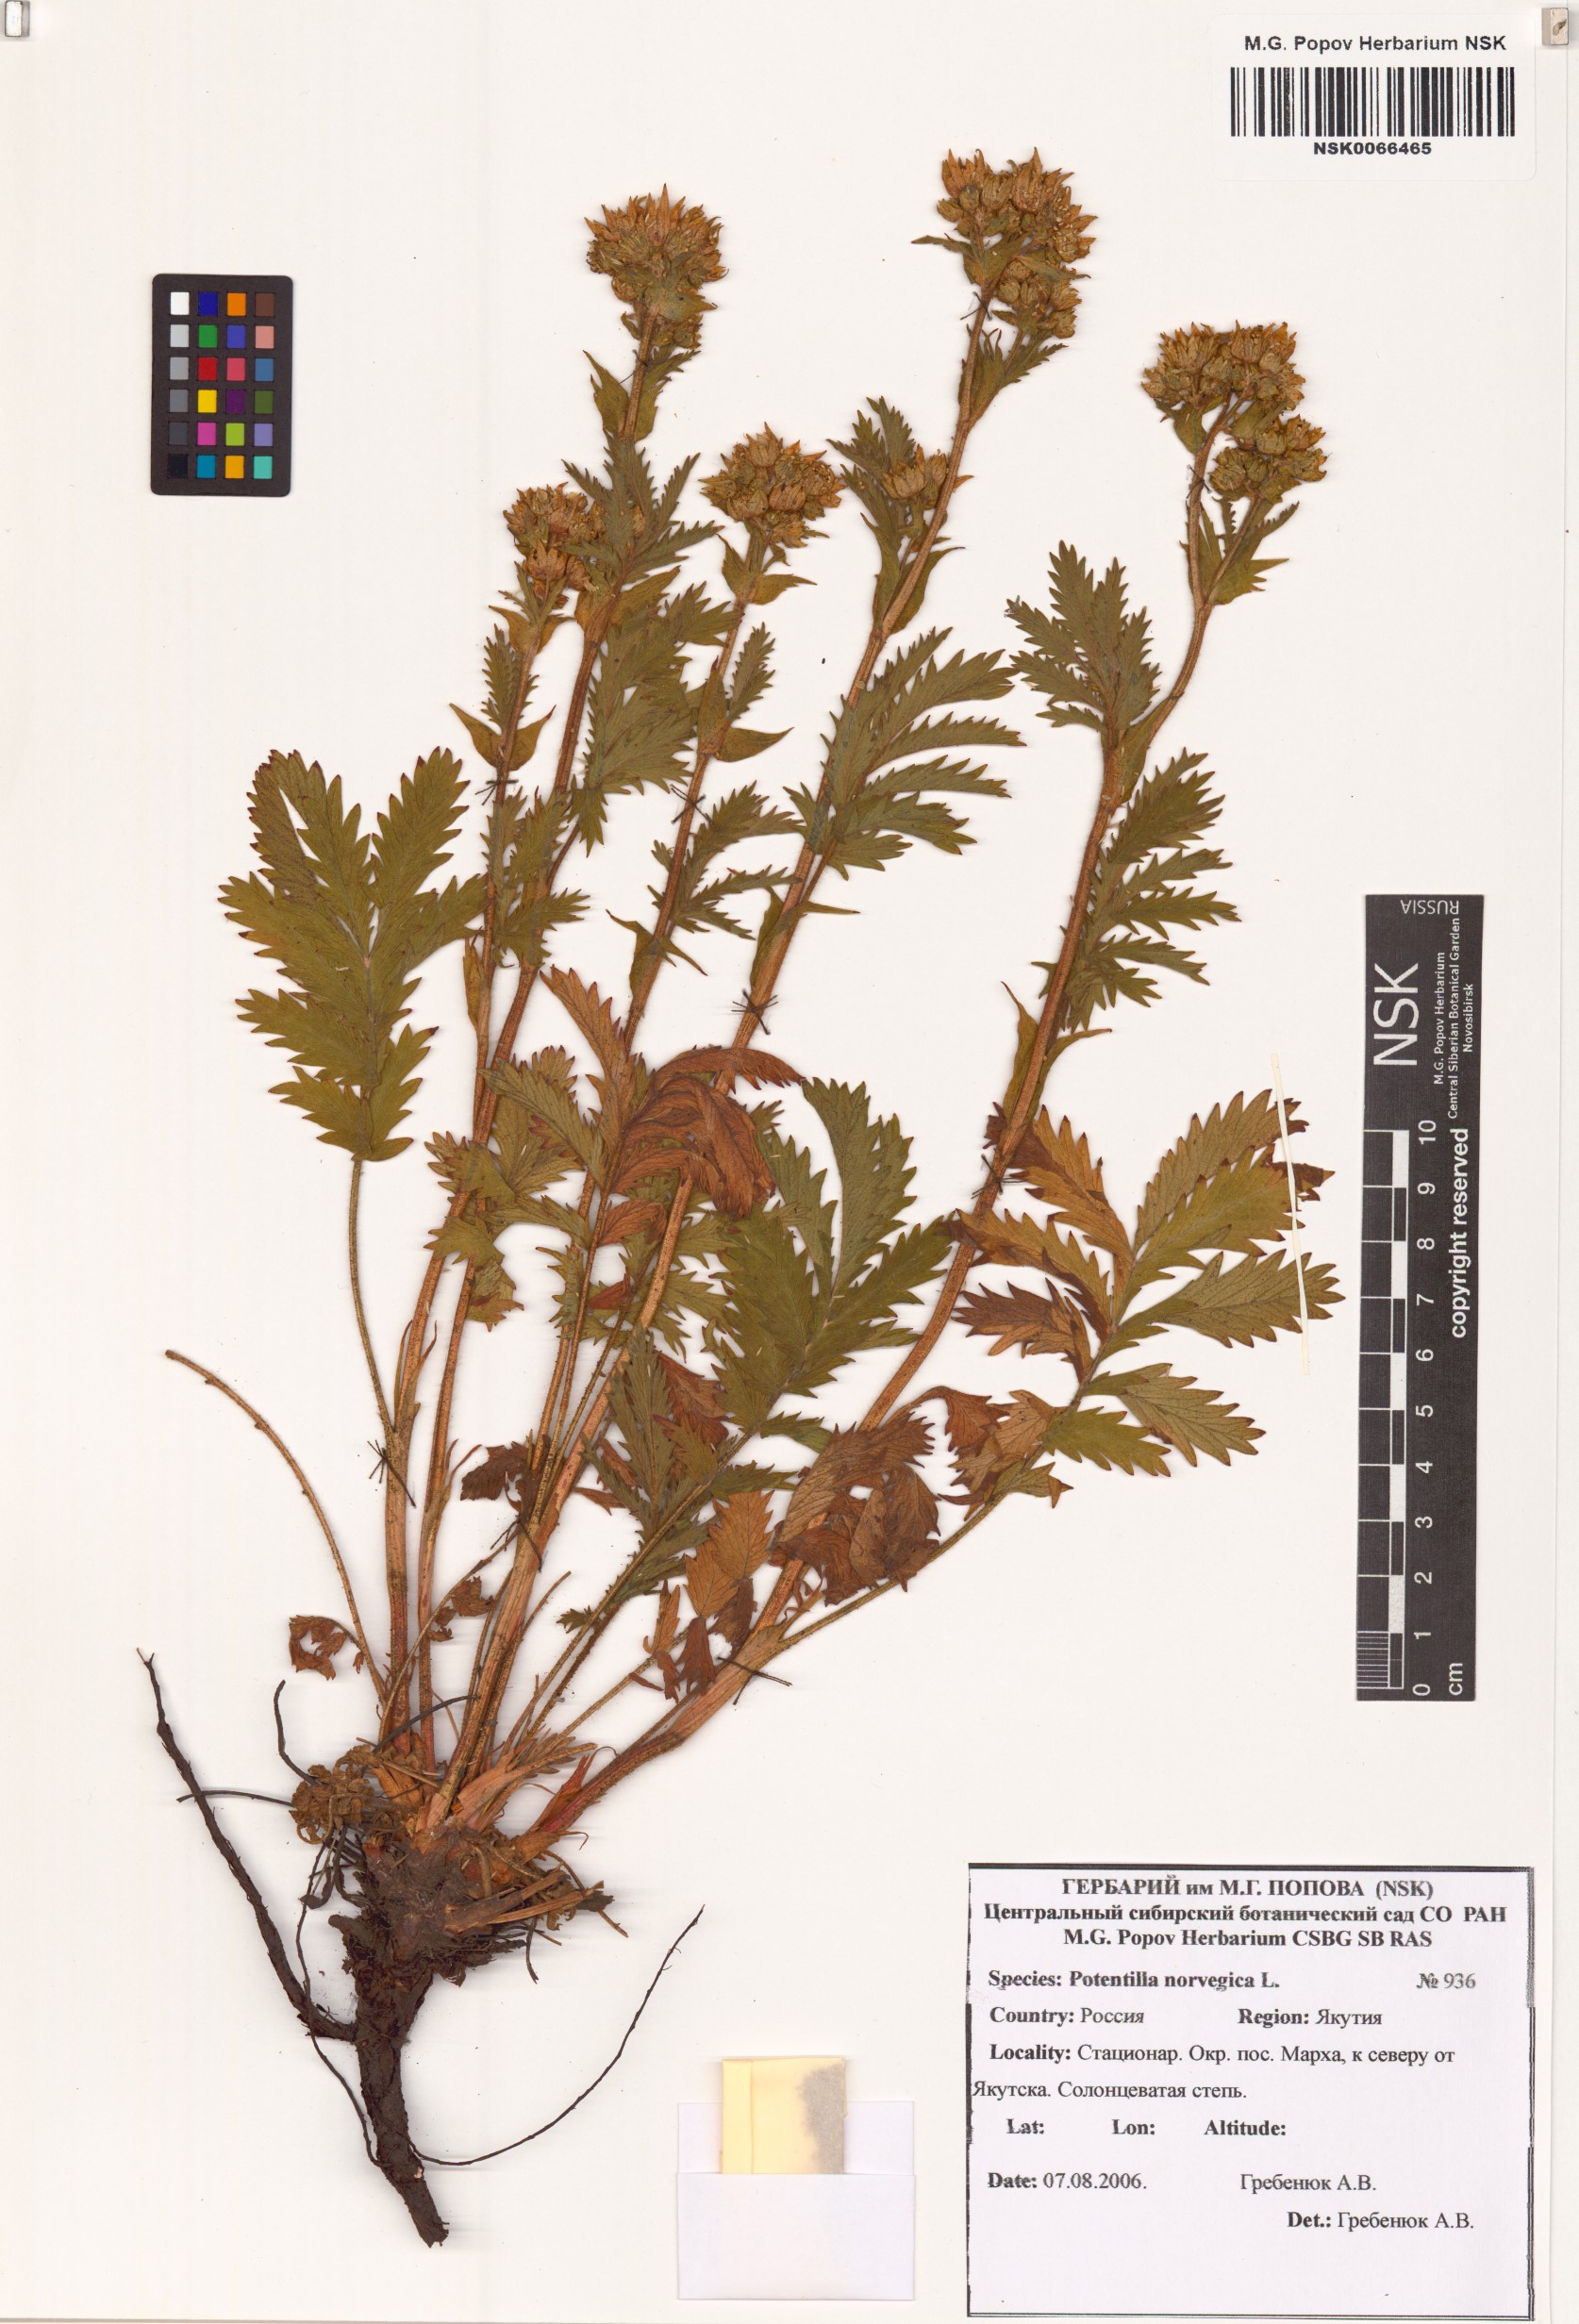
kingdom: Plantae
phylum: Tracheophyta
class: Magnoliopsida
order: Rosales
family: Rosaceae
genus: Potentilla
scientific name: Potentilla norvegica
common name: Ternate-leaved cinquefoil
